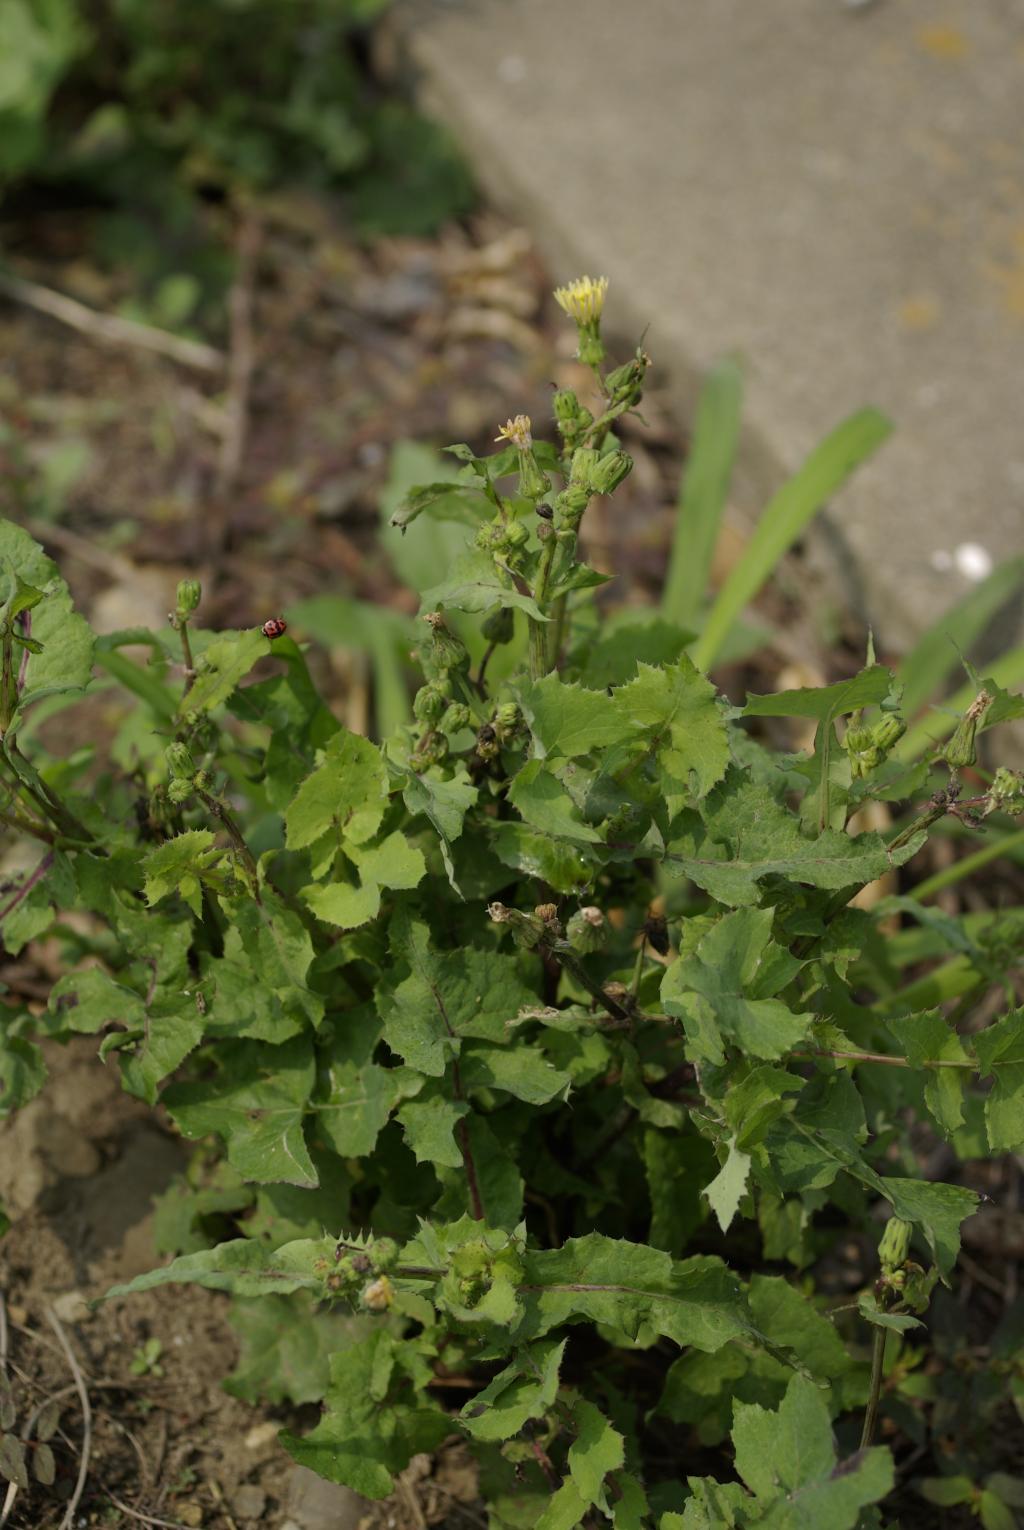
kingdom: Plantae
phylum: Tracheophyta
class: Magnoliopsida
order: Asterales
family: Asteraceae
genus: Sonchus
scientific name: Sonchus oleraceus
